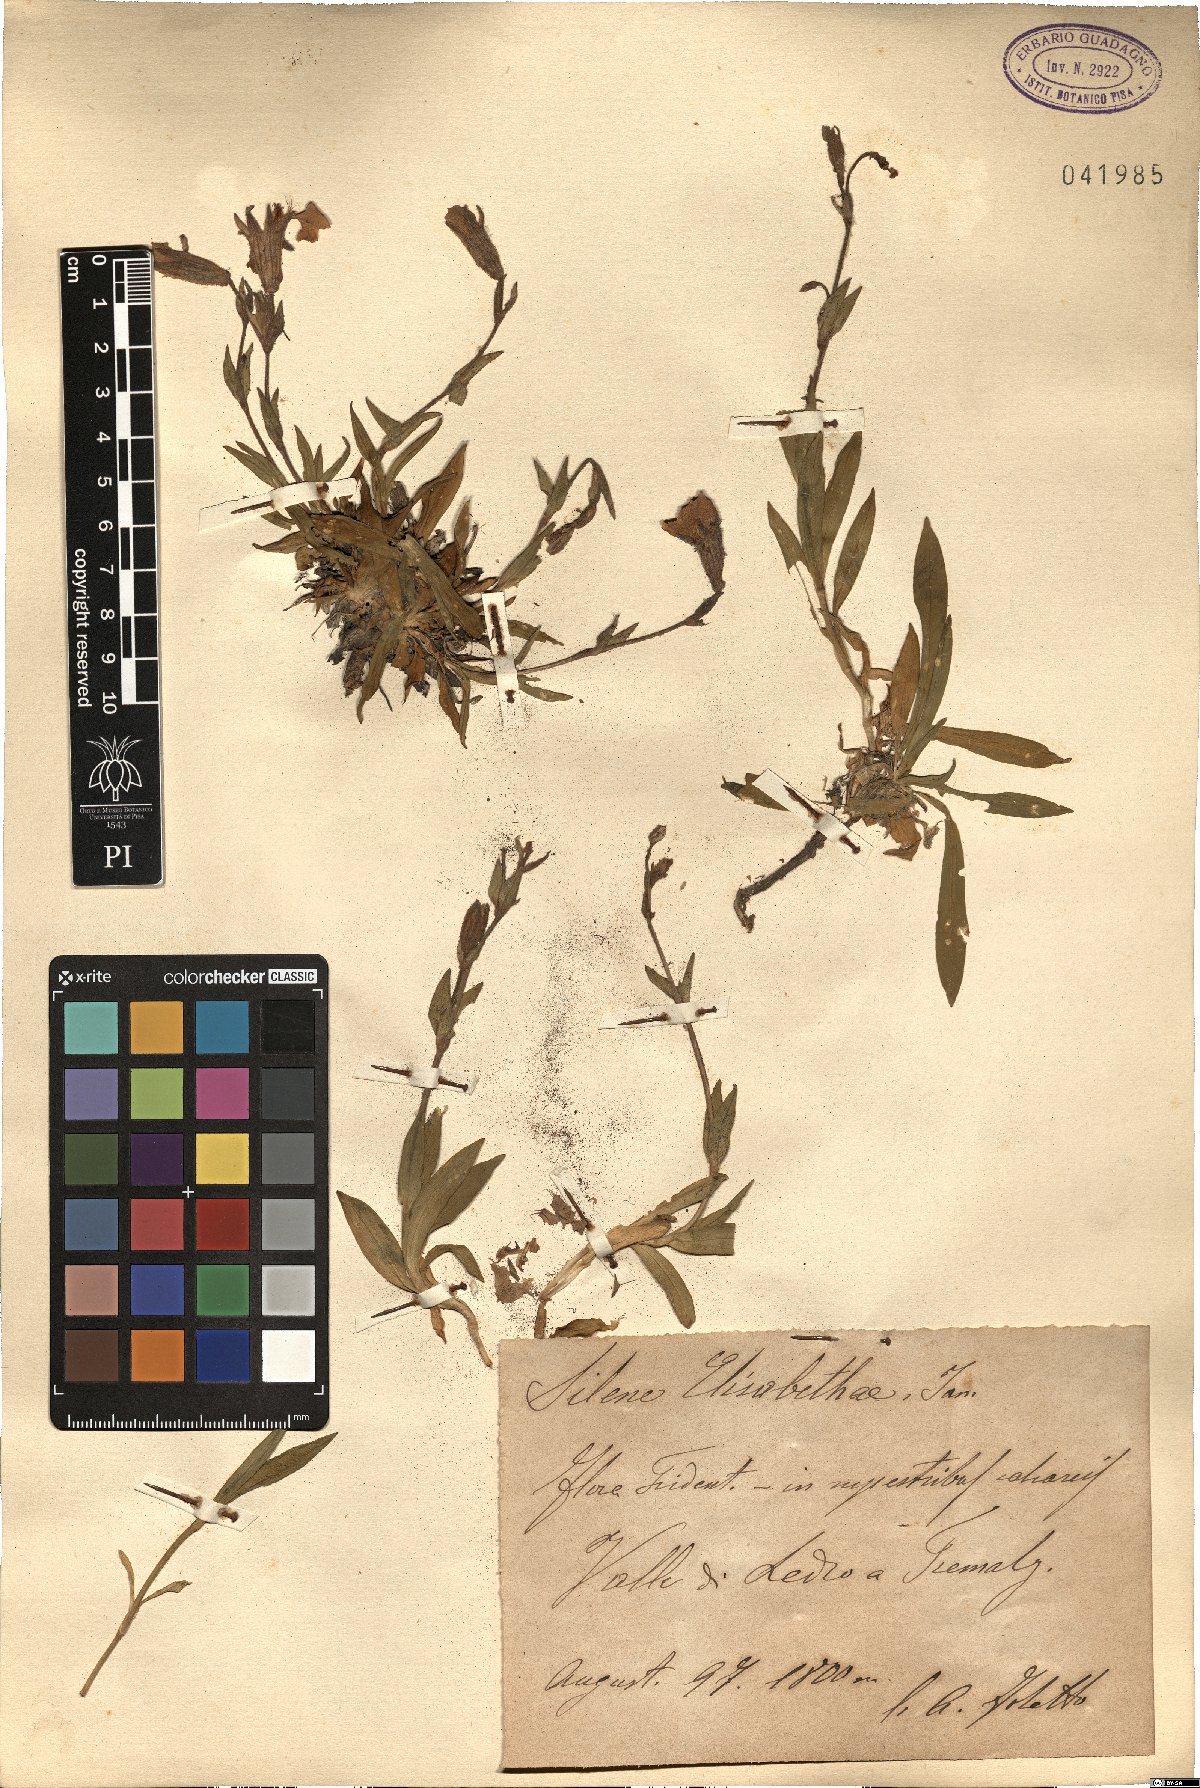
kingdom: Plantae
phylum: Tracheophyta
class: Magnoliopsida
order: Caryophyllales
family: Caryophyllaceae
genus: Silene
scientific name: Silene elisabethae
